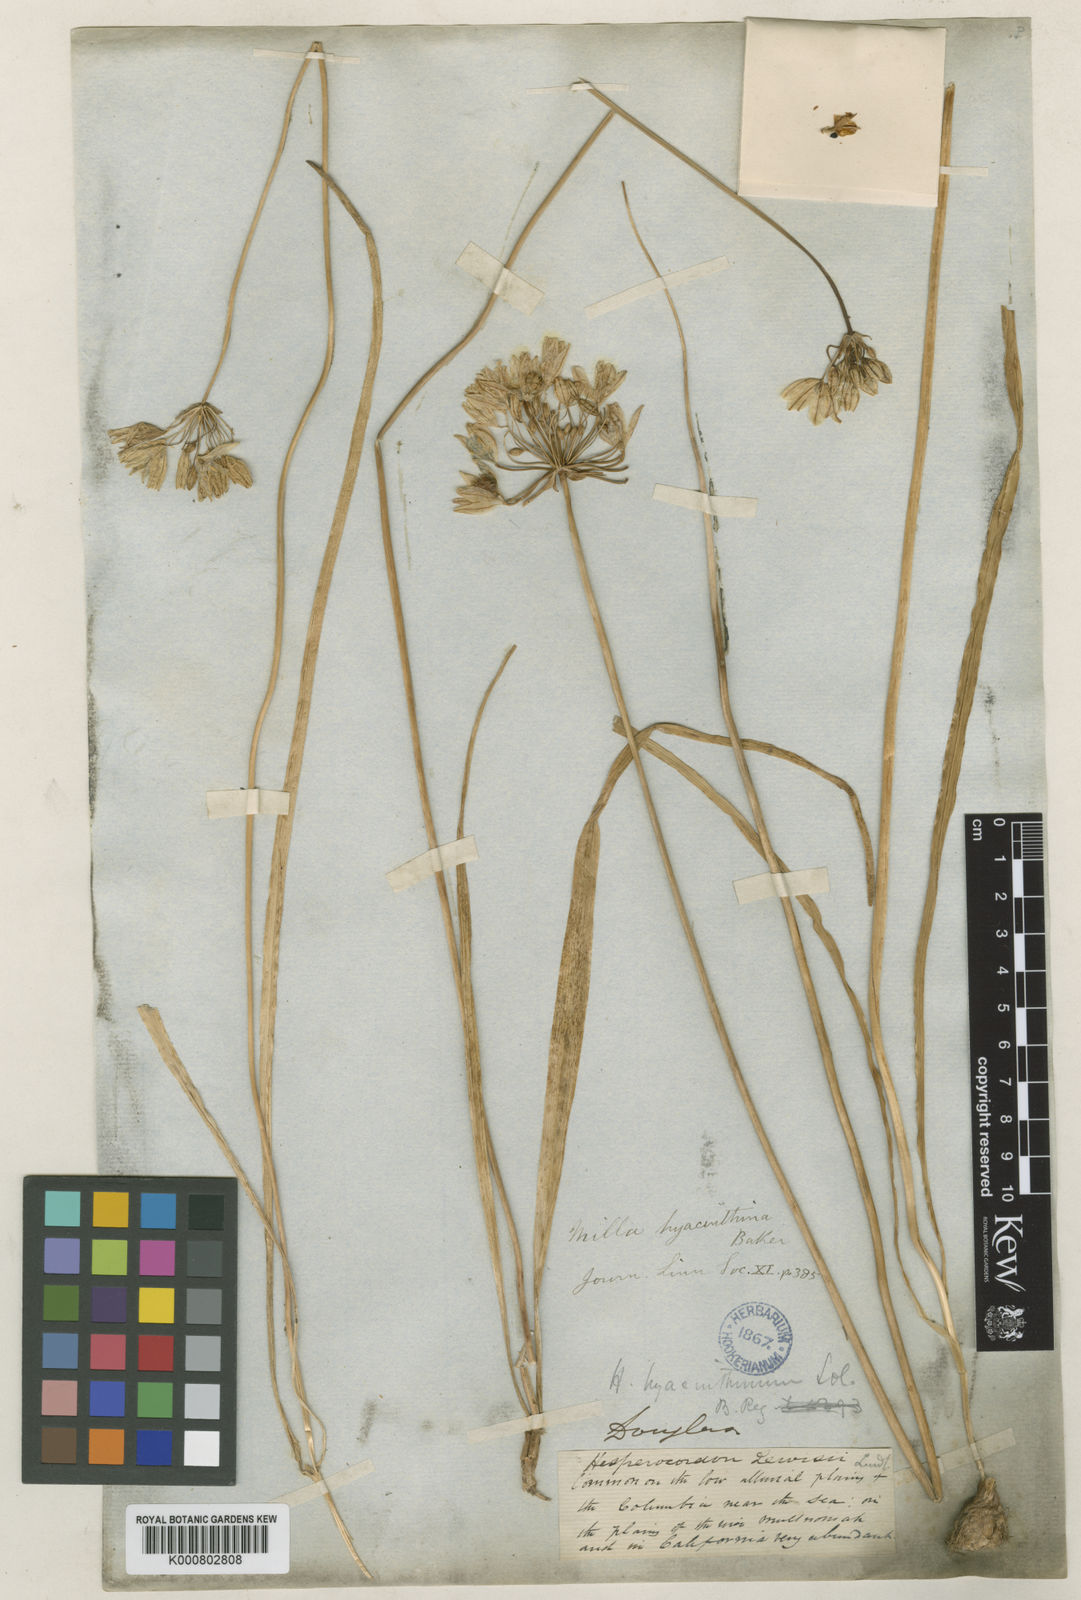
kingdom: Plantae
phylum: Tracheophyta
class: Liliopsida
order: Asparagales
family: Asparagaceae
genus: Triteleia
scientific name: Triteleia hyacinthina
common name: White brodiaea
